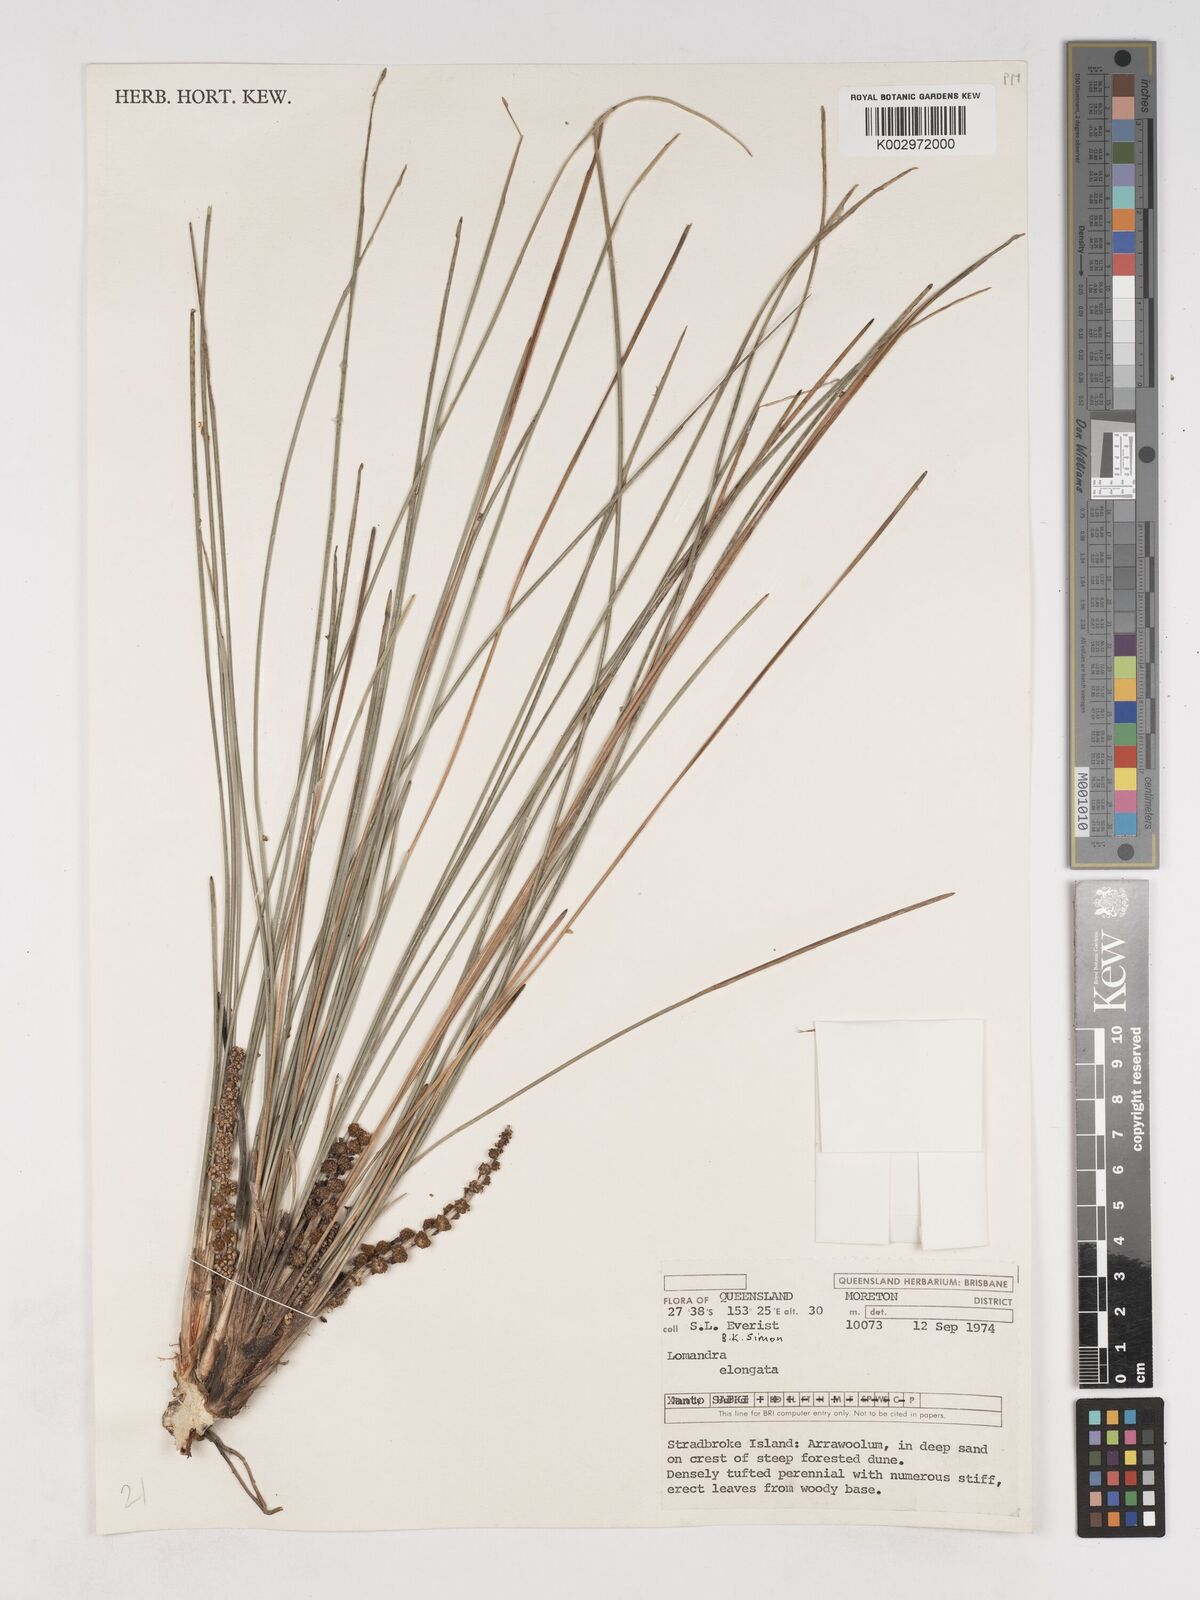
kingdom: Plantae
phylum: Tracheophyta
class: Liliopsida
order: Asparagales
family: Asparagaceae
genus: Lomandra
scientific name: Lomandra elongata
